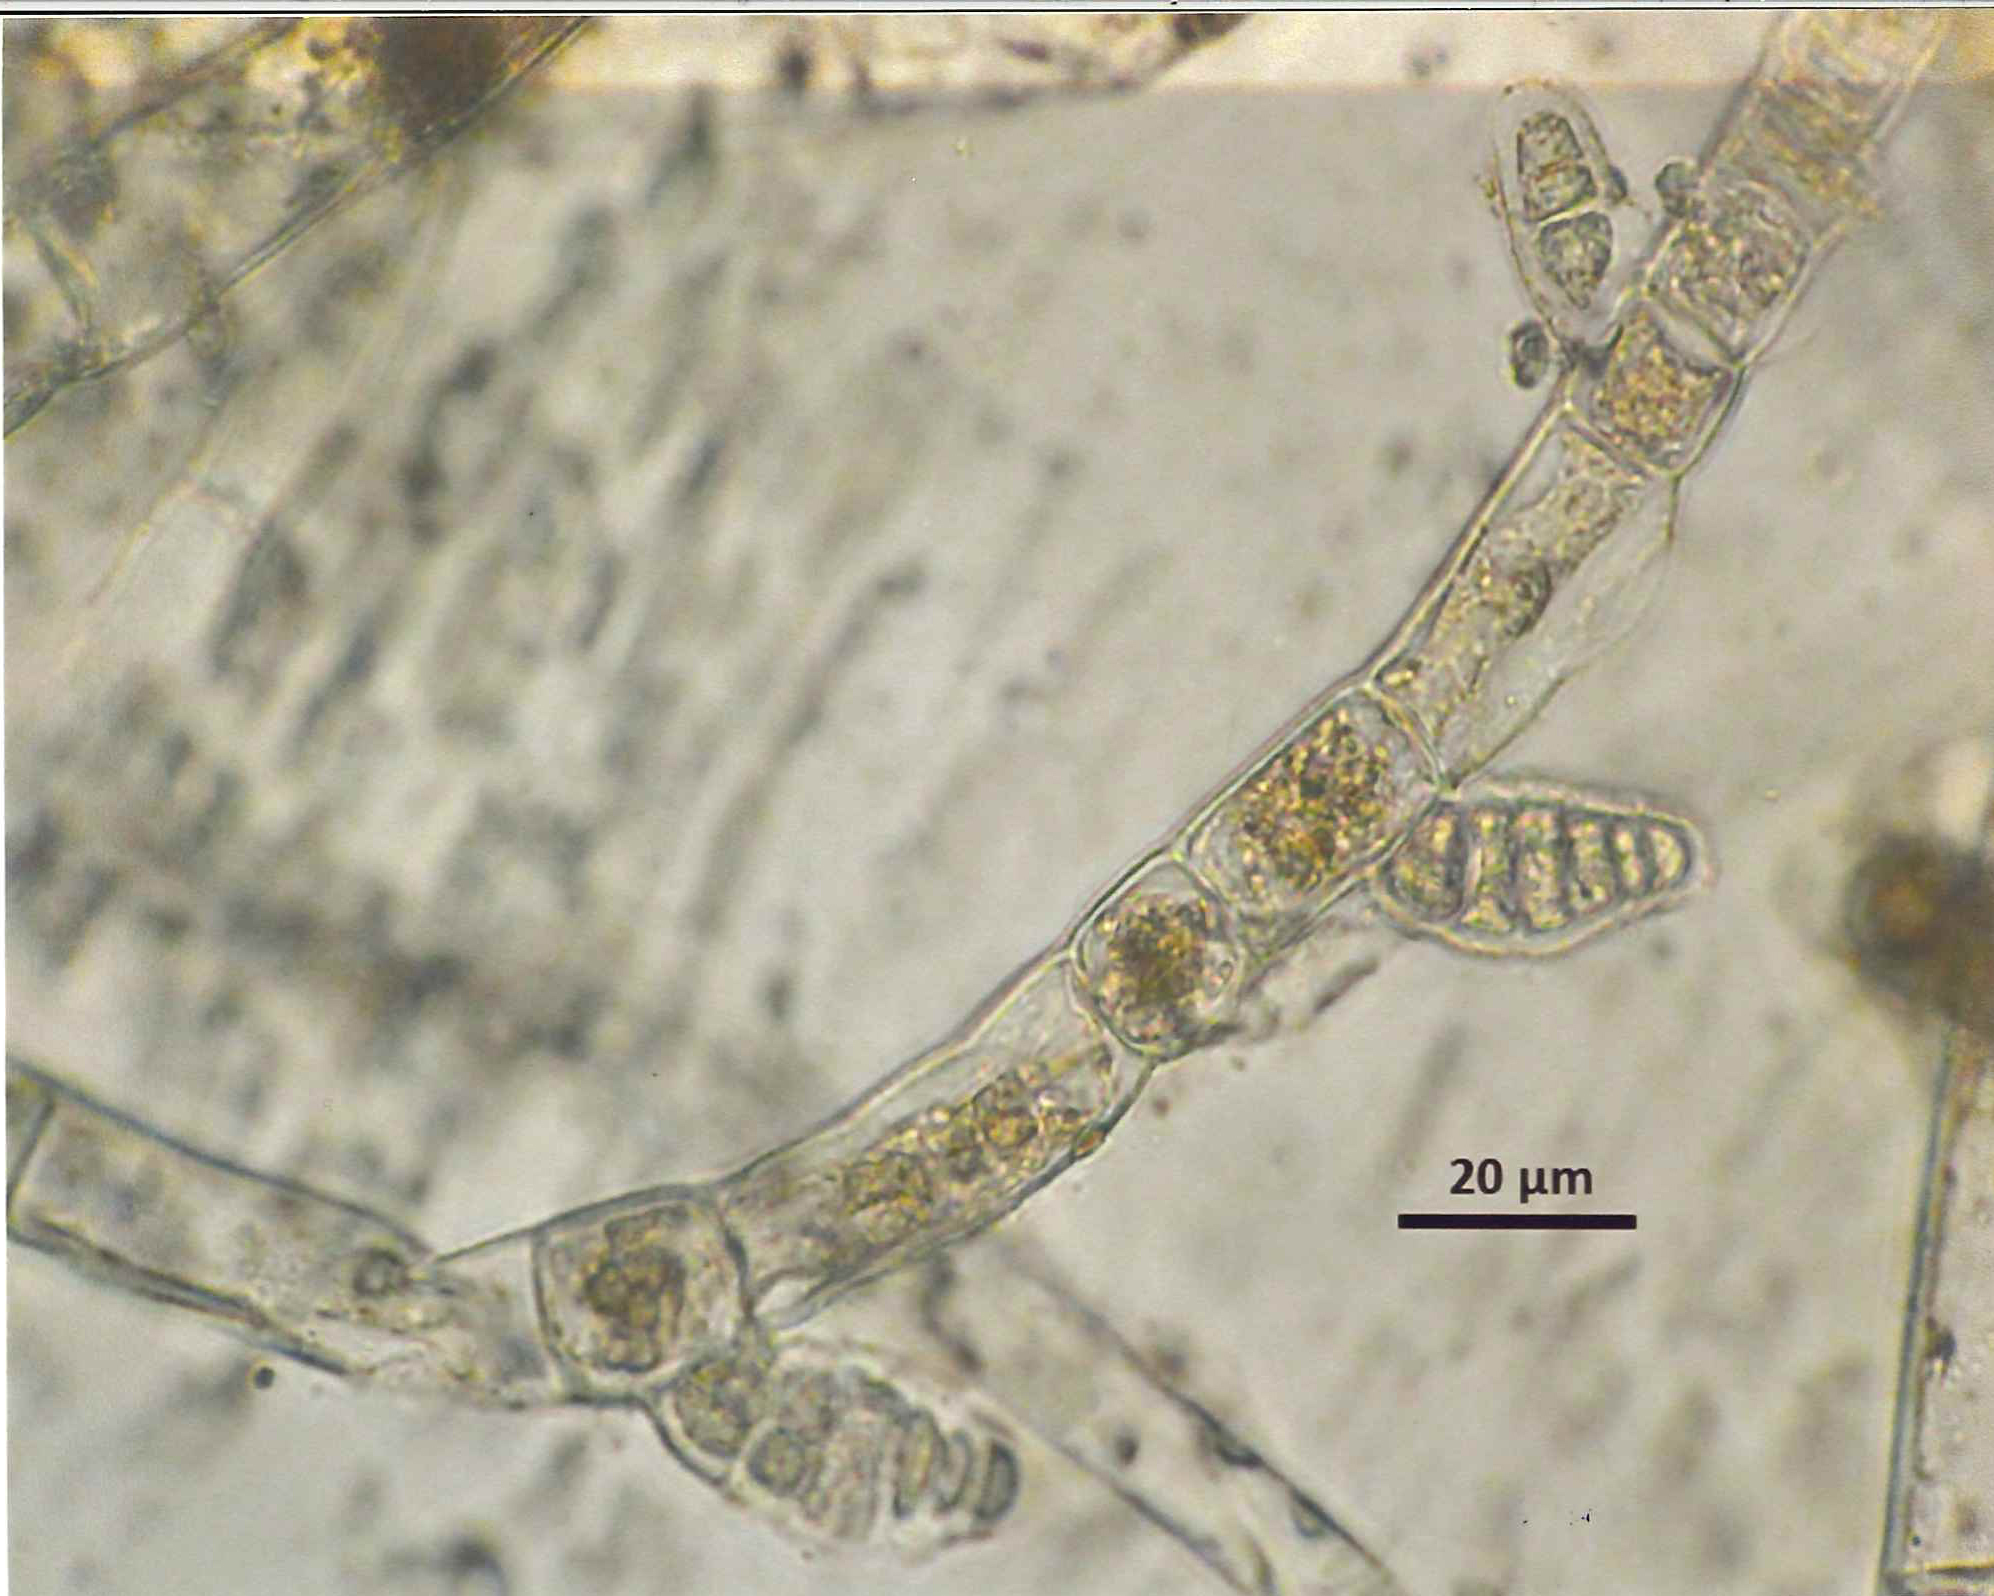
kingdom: Chromista
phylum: Ochrophyta
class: Phaeophyceae
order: Ectocarpales
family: Acinetosporaceae
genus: Feldmannia
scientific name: Feldmannia indica
